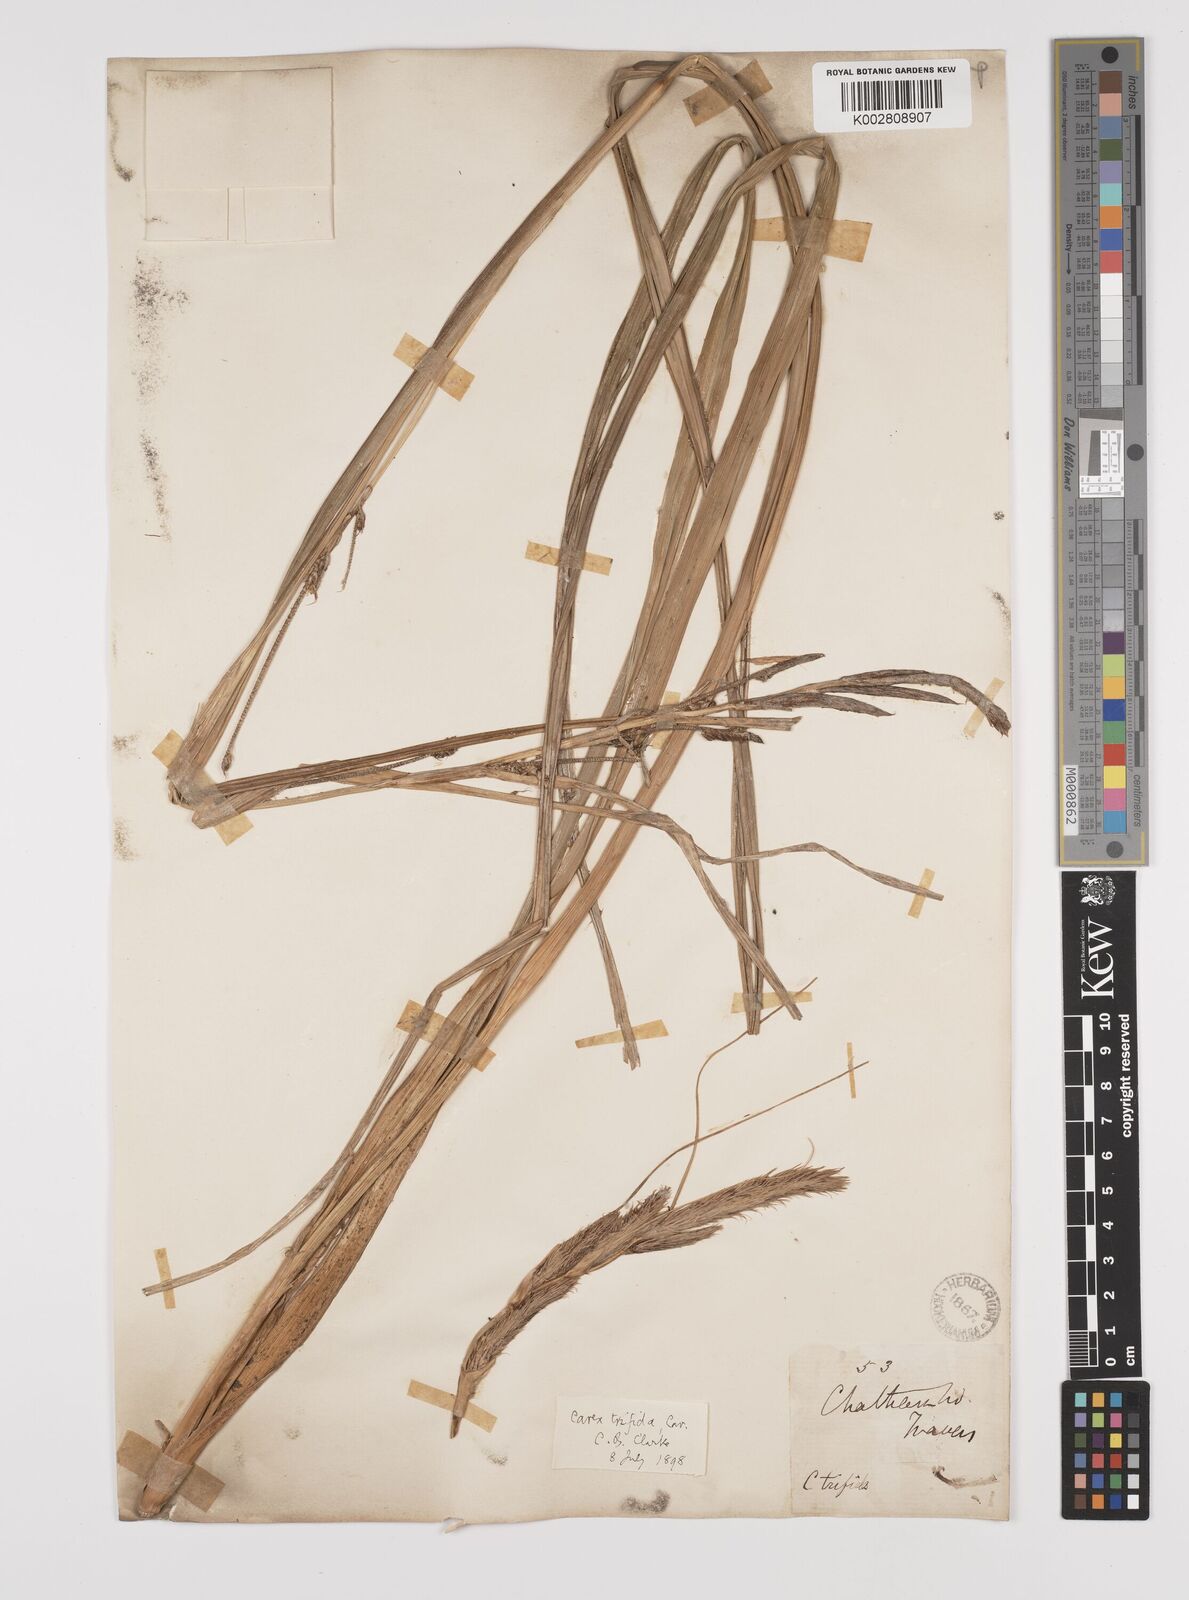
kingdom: Plantae
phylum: Tracheophyta
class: Liliopsida
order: Poales
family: Cyperaceae
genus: Carex
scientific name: Carex trifida
